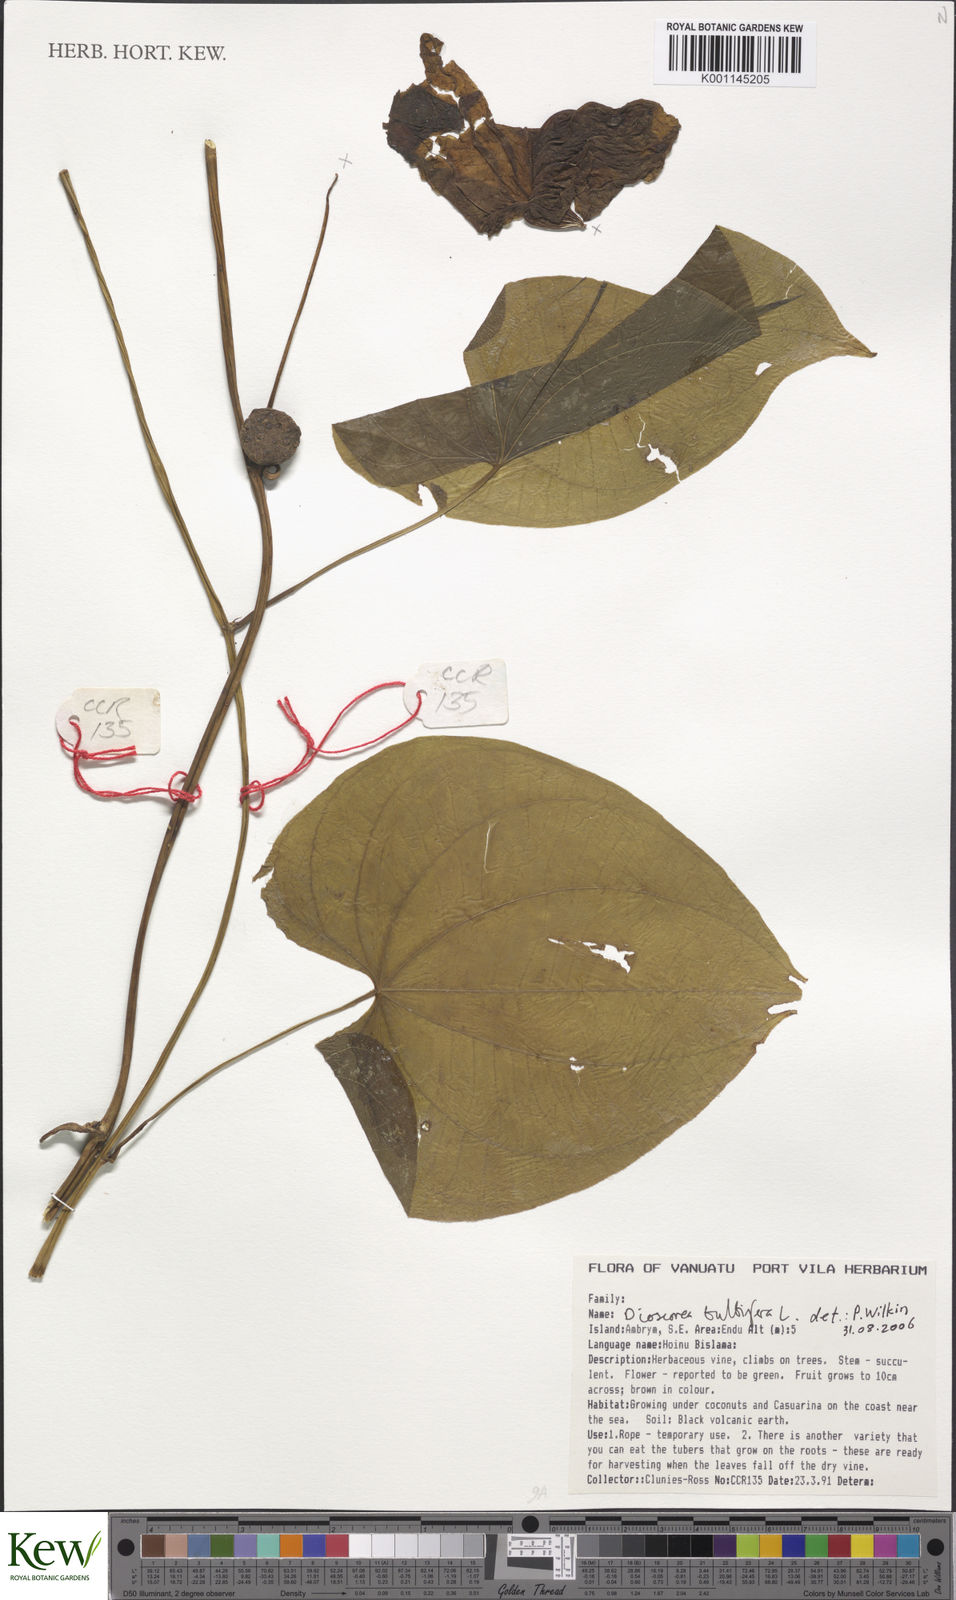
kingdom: Plantae
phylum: Tracheophyta
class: Liliopsida
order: Dioscoreales
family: Dioscoreaceae
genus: Dioscorea
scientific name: Dioscorea bulbifera
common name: Air yam
